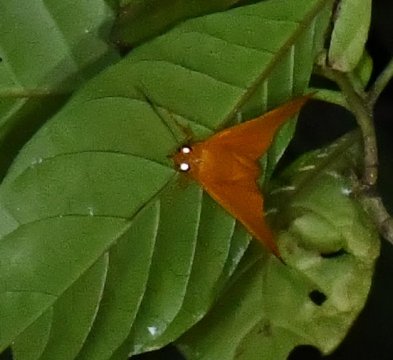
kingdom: Animalia
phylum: Arthropoda
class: Insecta
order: Lepidoptera
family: Hesperiidae
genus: Bungalotis
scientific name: Bungalotis
